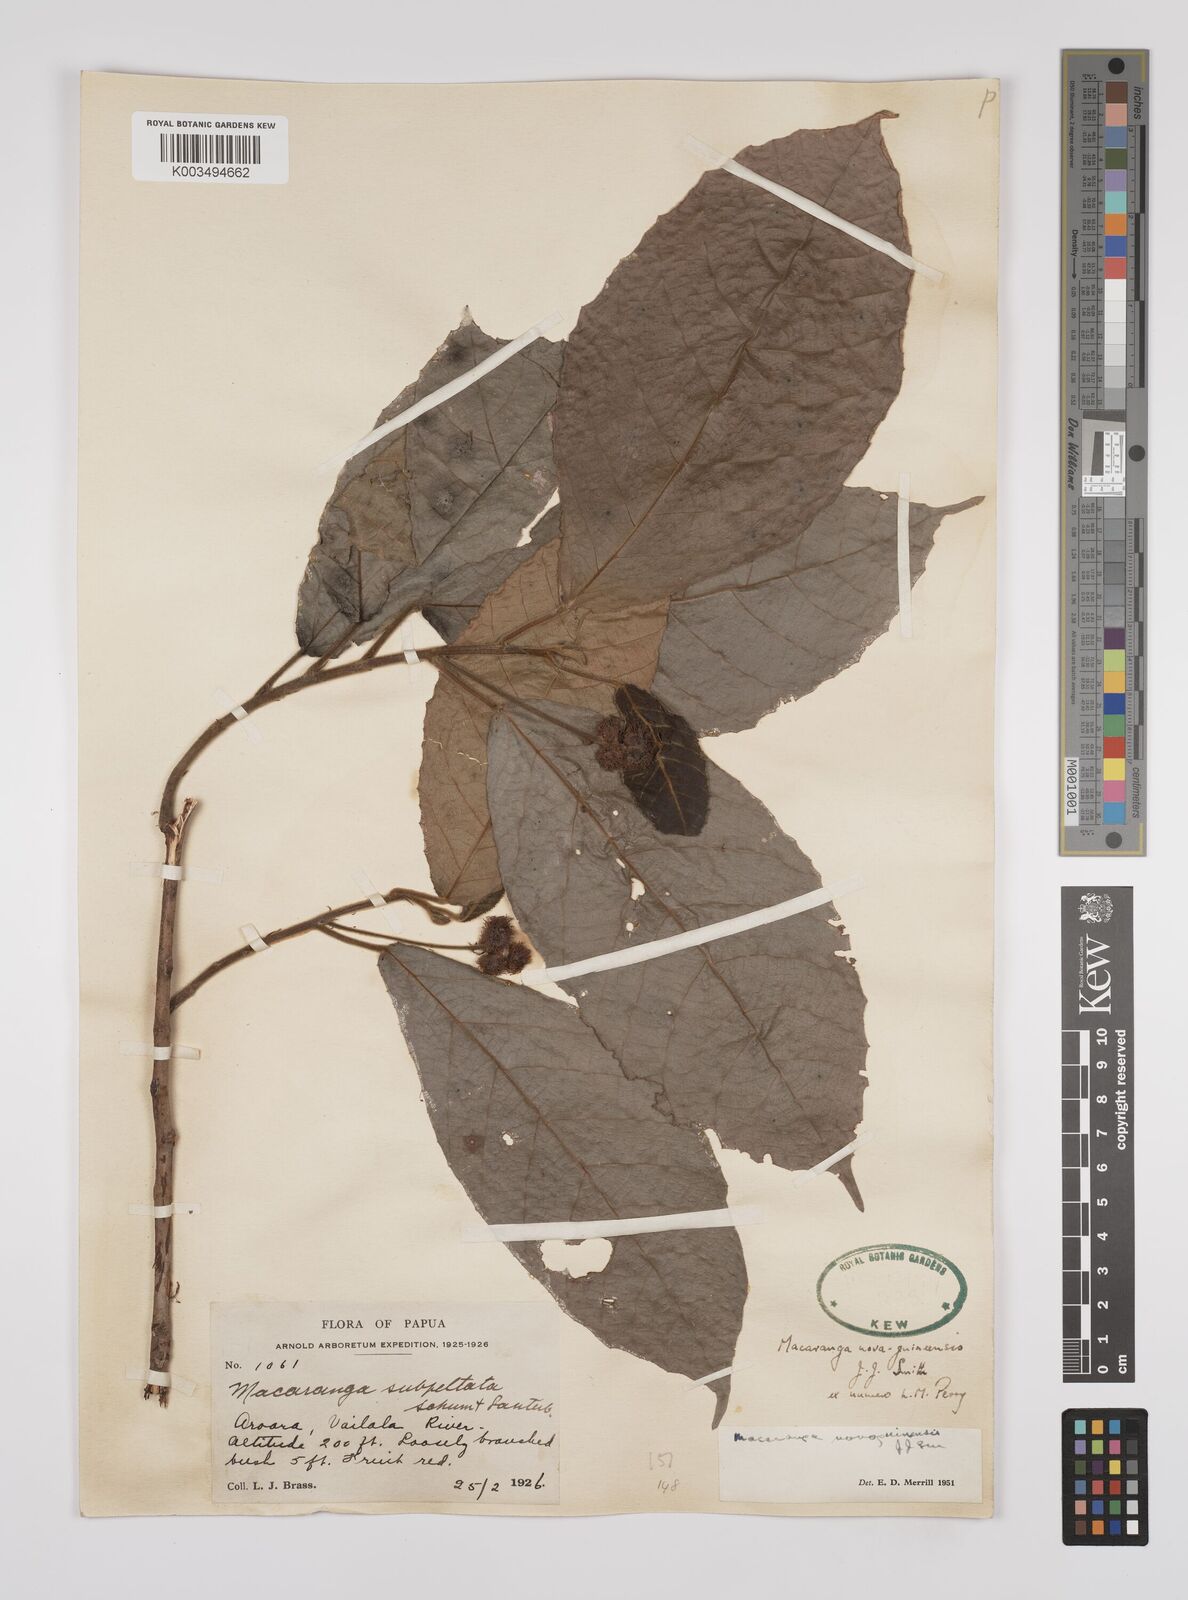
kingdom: Plantae
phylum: Tracheophyta
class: Magnoliopsida
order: Malpighiales
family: Euphorbiaceae
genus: Macaranga
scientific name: Macaranga novoguineensis
